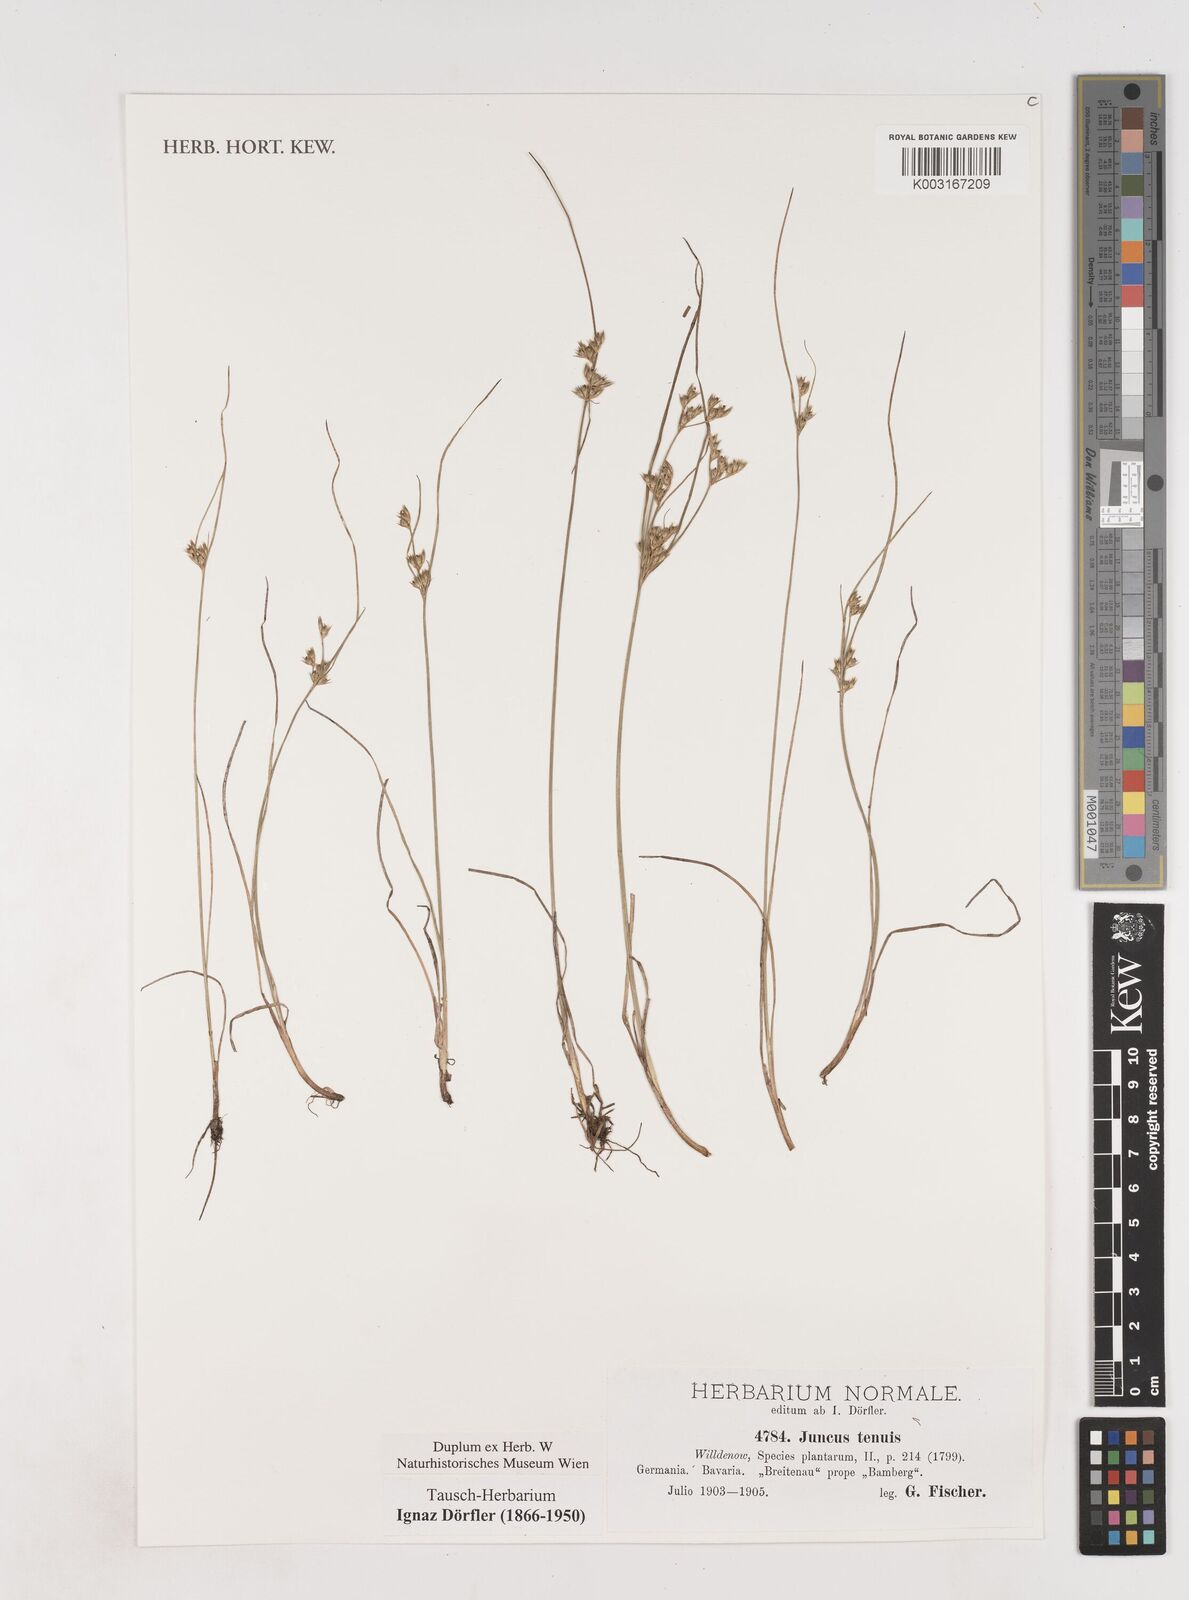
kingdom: Plantae
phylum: Tracheophyta
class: Liliopsida
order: Poales
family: Juncaceae
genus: Juncus
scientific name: Juncus tenuis
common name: Slender rush
